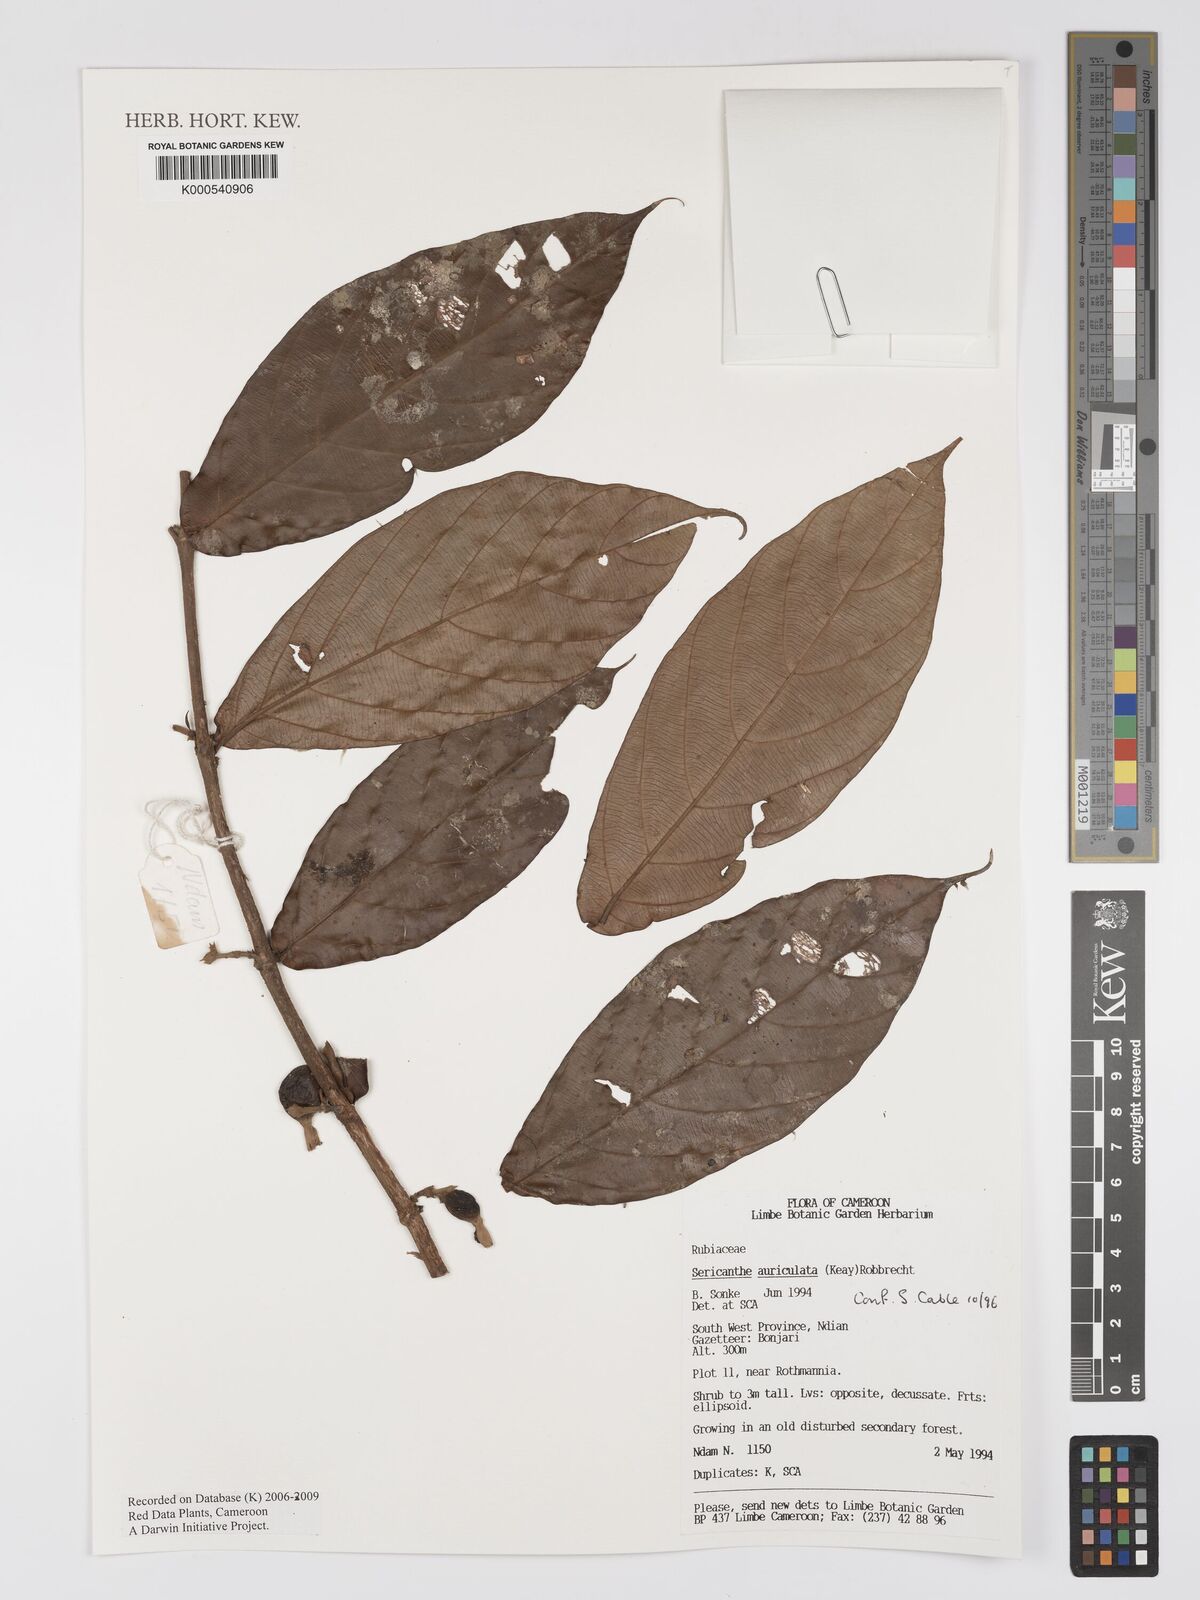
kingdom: Plantae
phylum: Tracheophyta
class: Magnoliopsida
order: Gentianales
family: Rubiaceae
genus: Sericanthe
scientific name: Sericanthe auriculata
